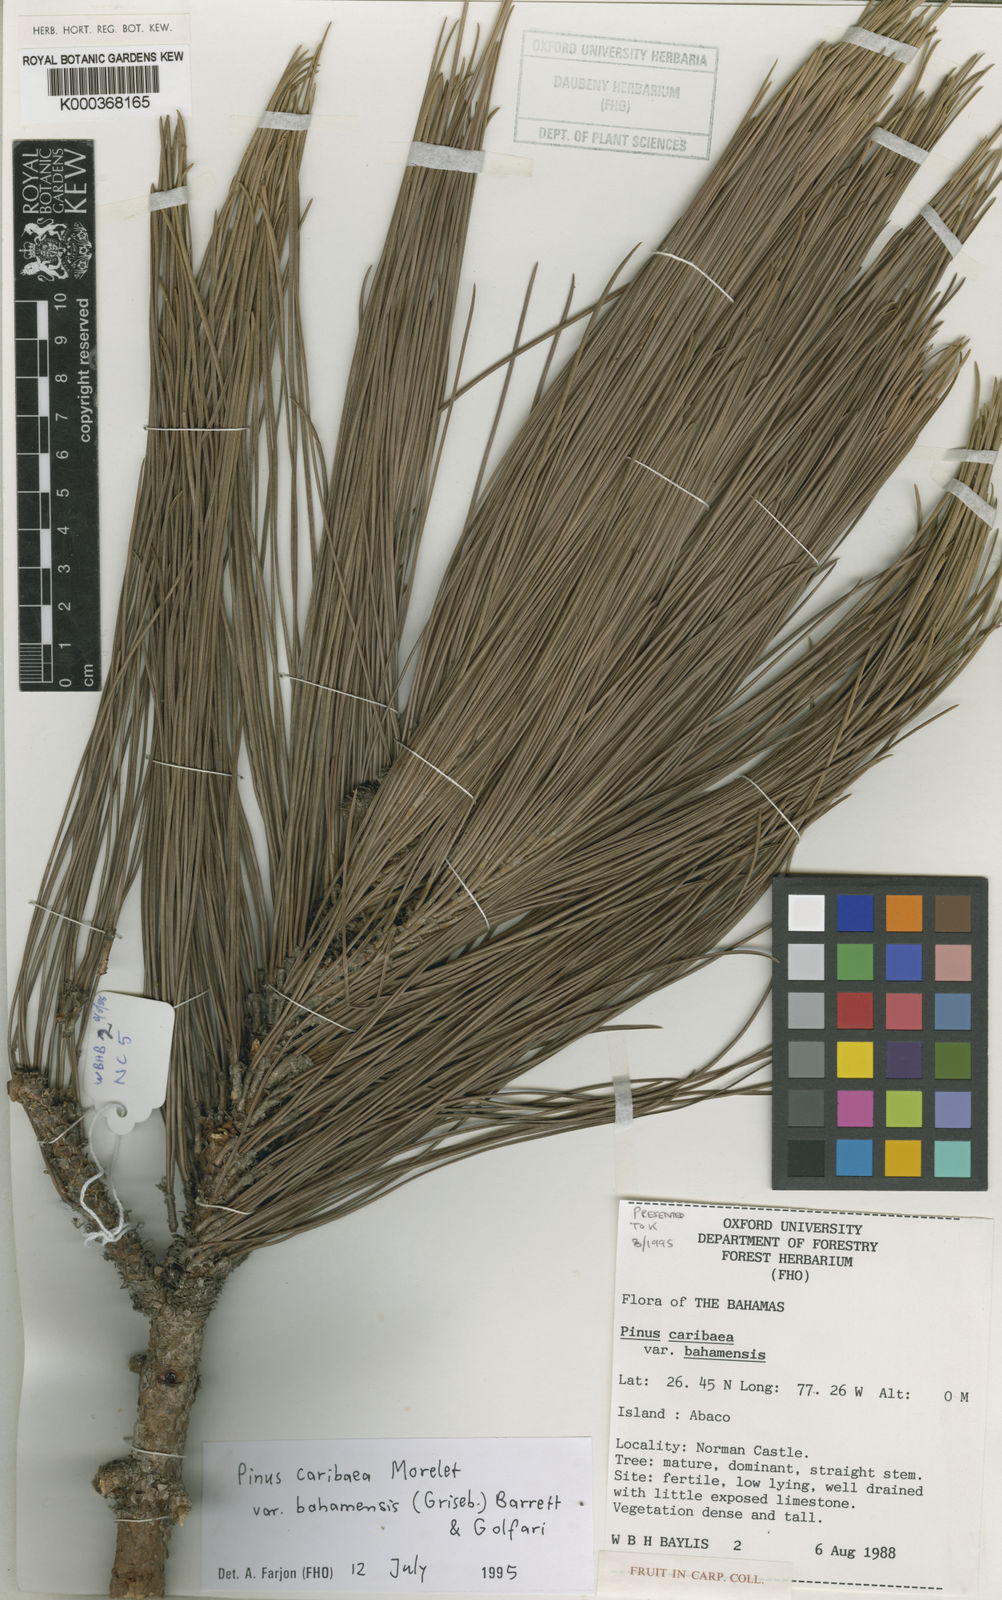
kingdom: Plantae
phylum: Tracheophyta
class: Pinopsida
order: Pinales
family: Pinaceae
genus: Pinus
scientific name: Pinus caribaea
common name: Caribbean pine
